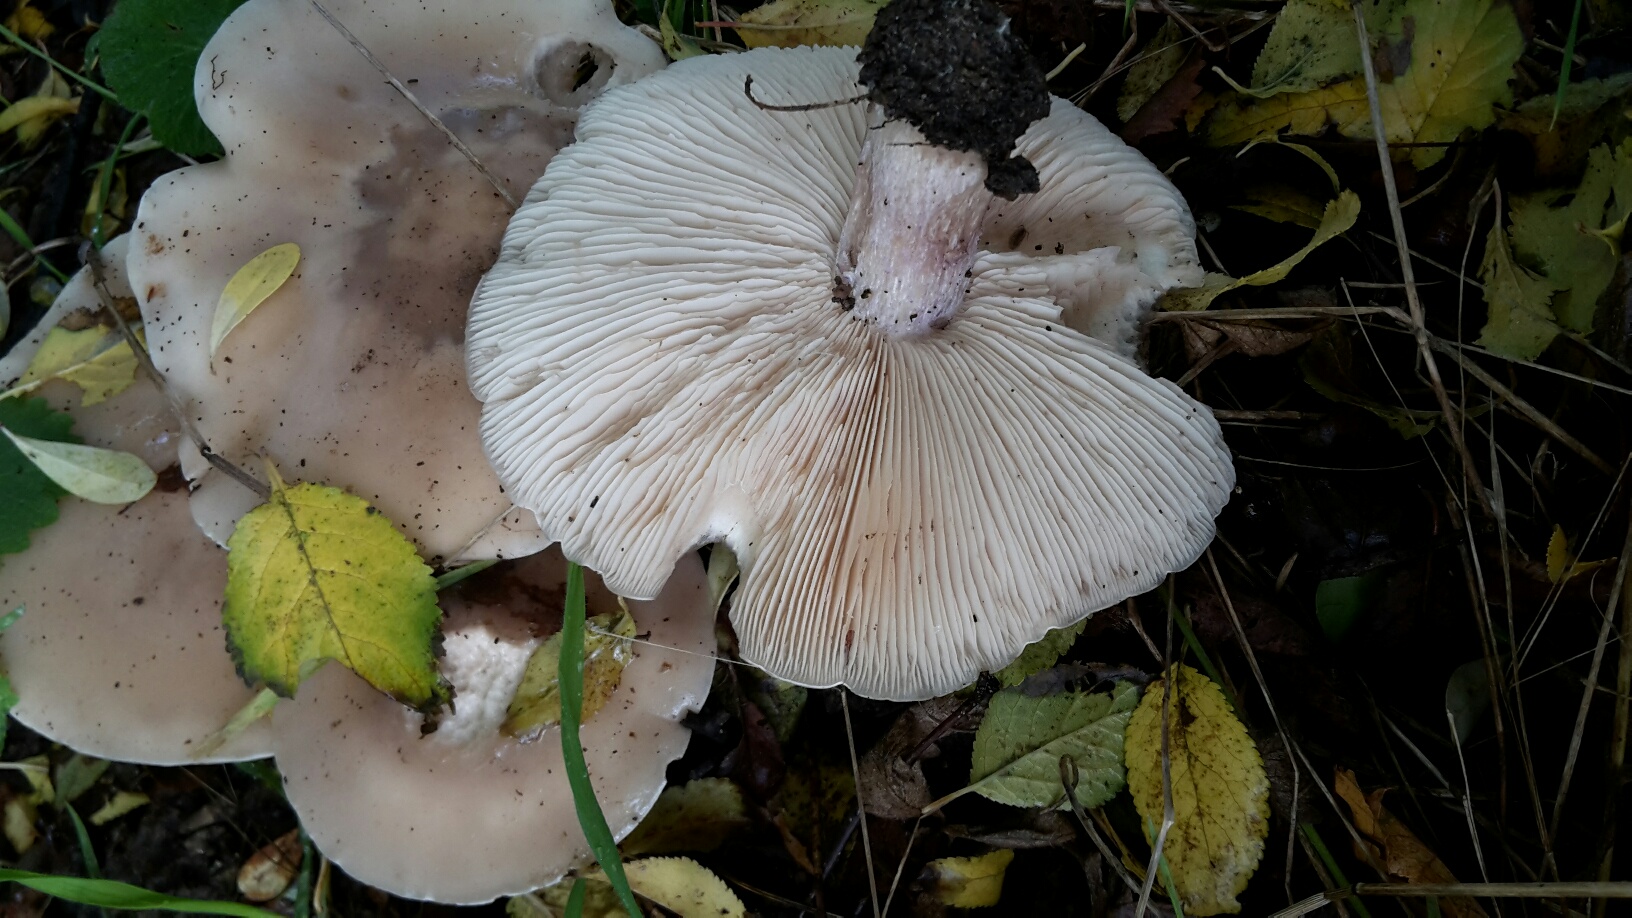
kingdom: Fungi
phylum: Basidiomycota
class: Agaricomycetes
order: Agaricales
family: Tricholomataceae
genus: Lepista
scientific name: Lepista personata
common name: bleg hekseringshat
